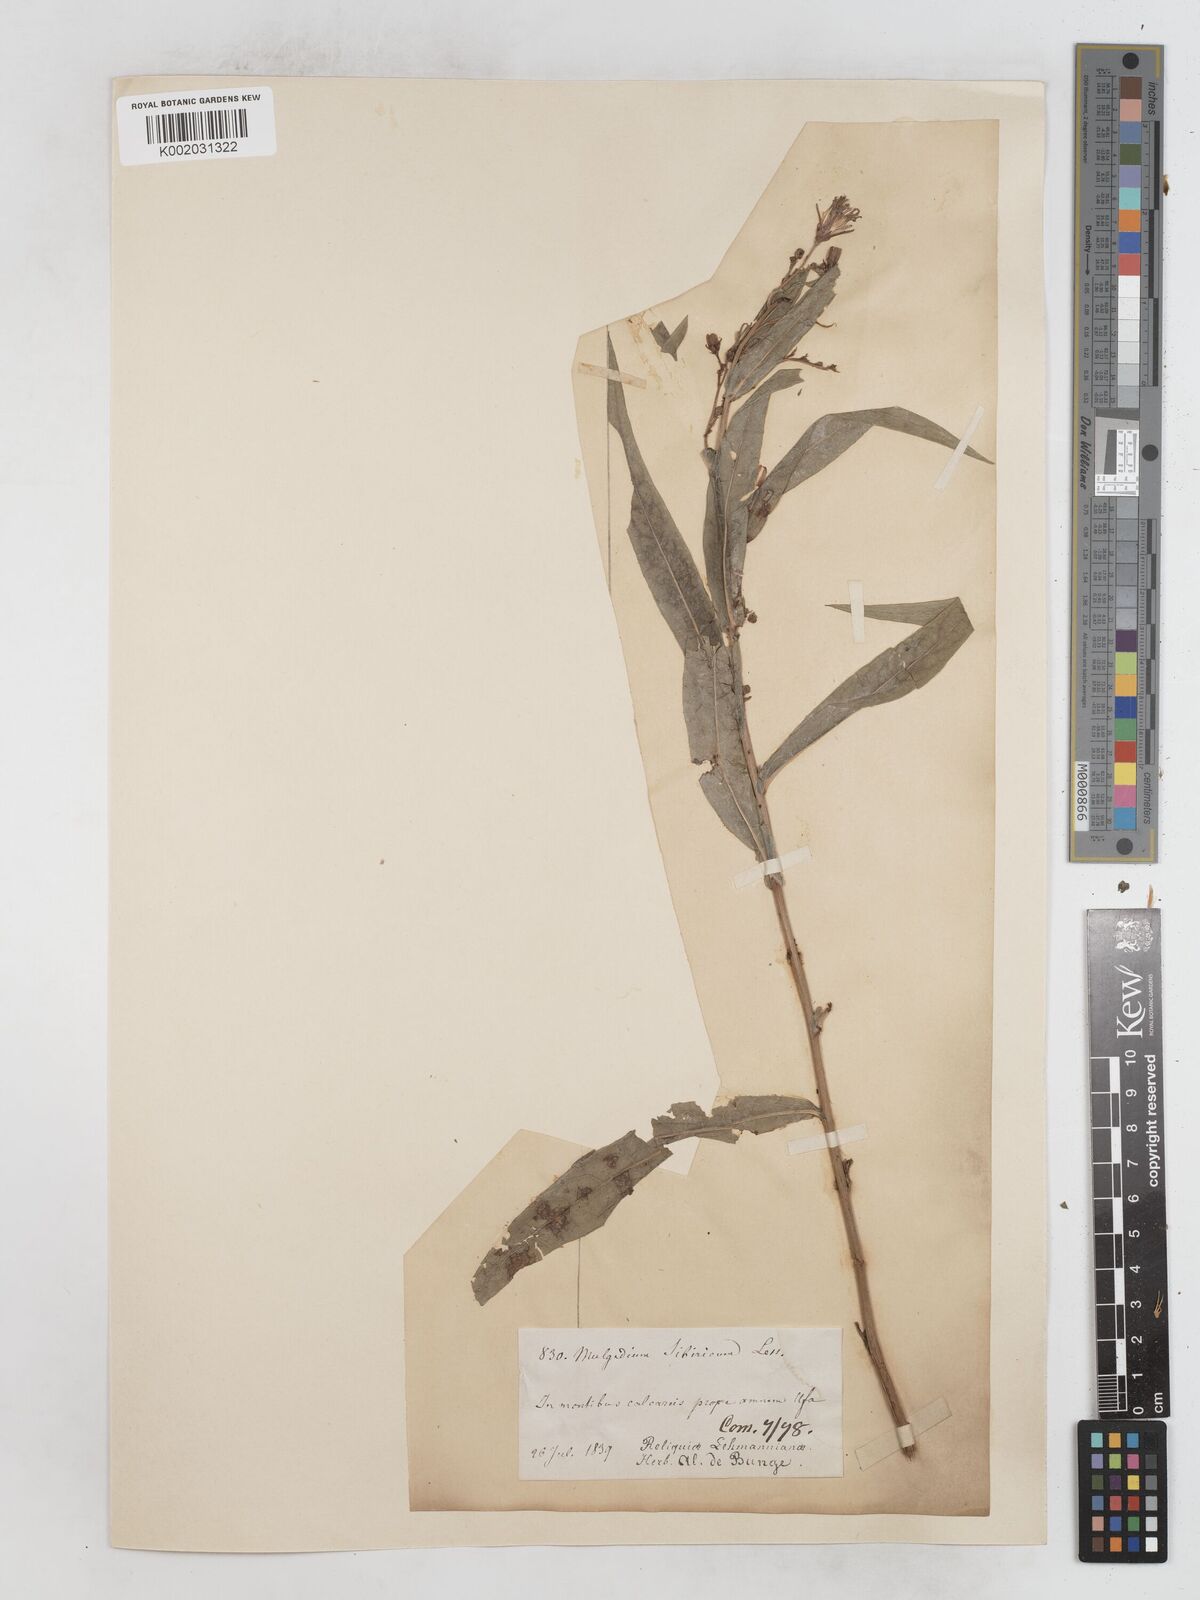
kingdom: Plantae
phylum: Tracheophyta
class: Magnoliopsida
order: Asterales
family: Asteraceae
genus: Lactuca
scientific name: Lactuca sibirica
